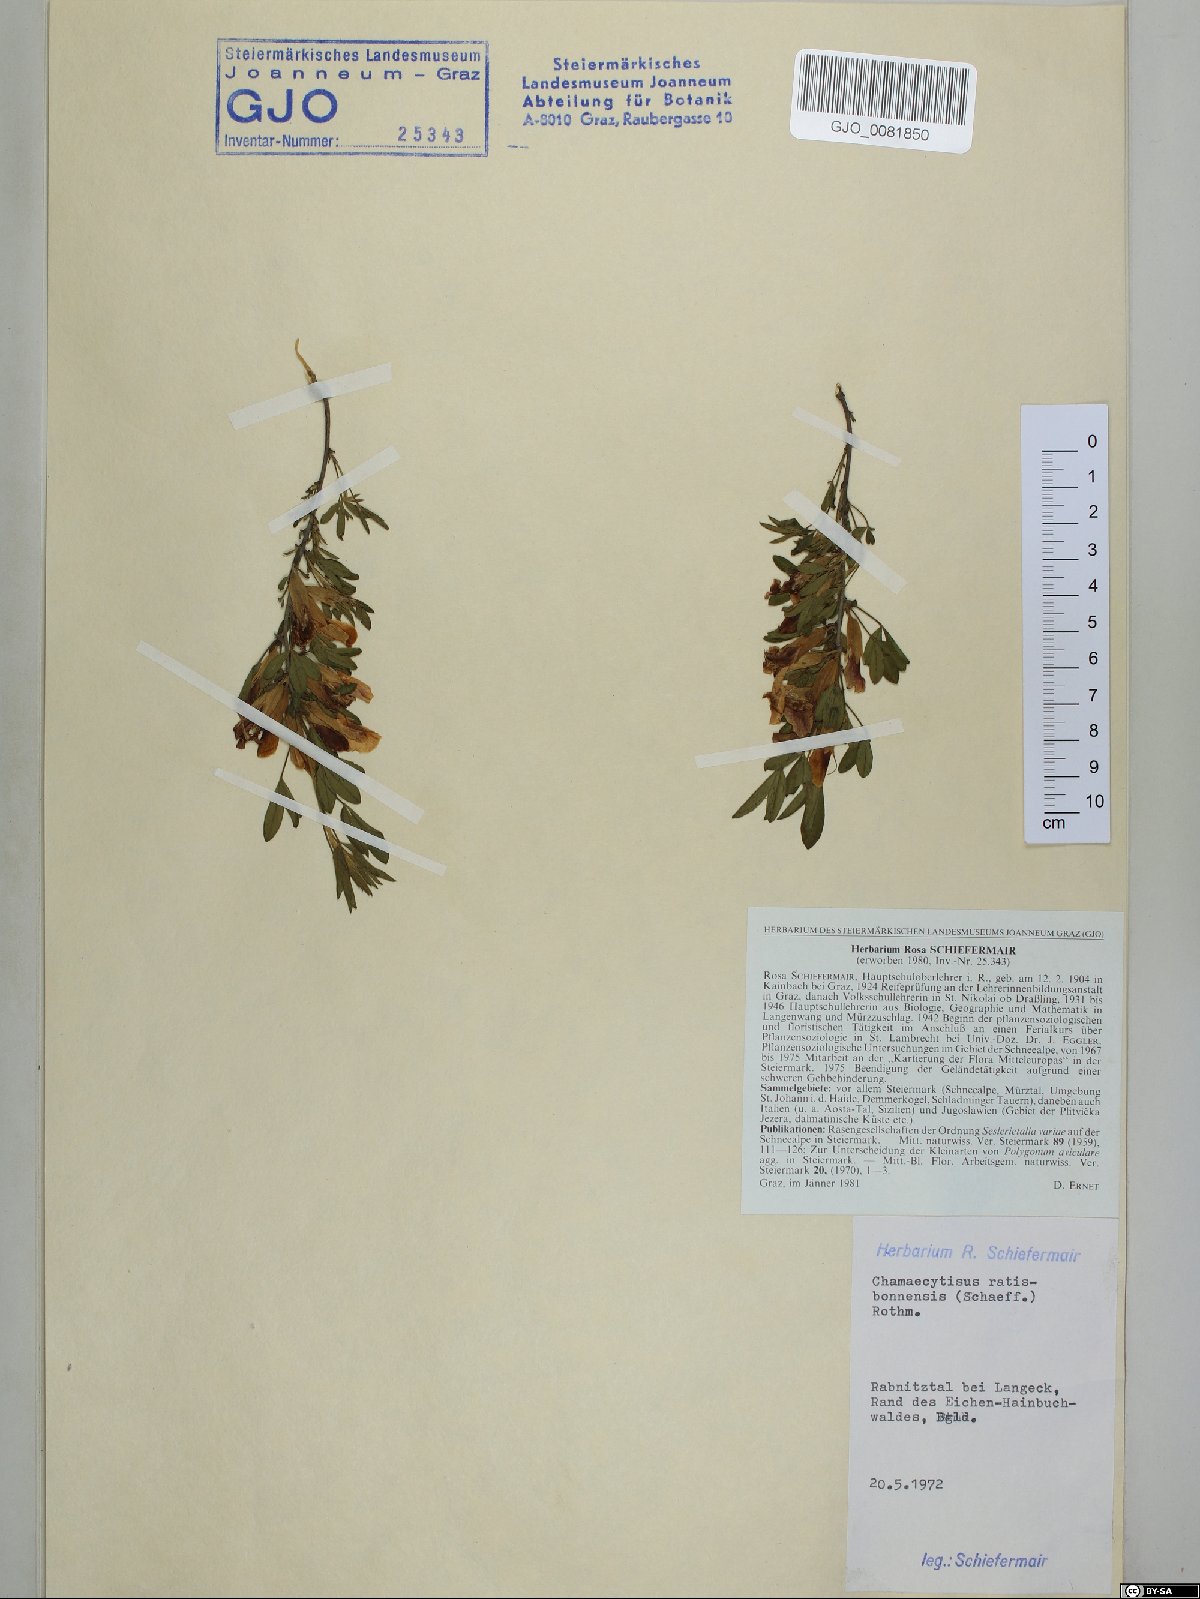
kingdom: Plantae
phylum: Tracheophyta
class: Magnoliopsida
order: Fabales
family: Fabaceae
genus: Chamaecytisus
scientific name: Chamaecytisus ratisbonensis
